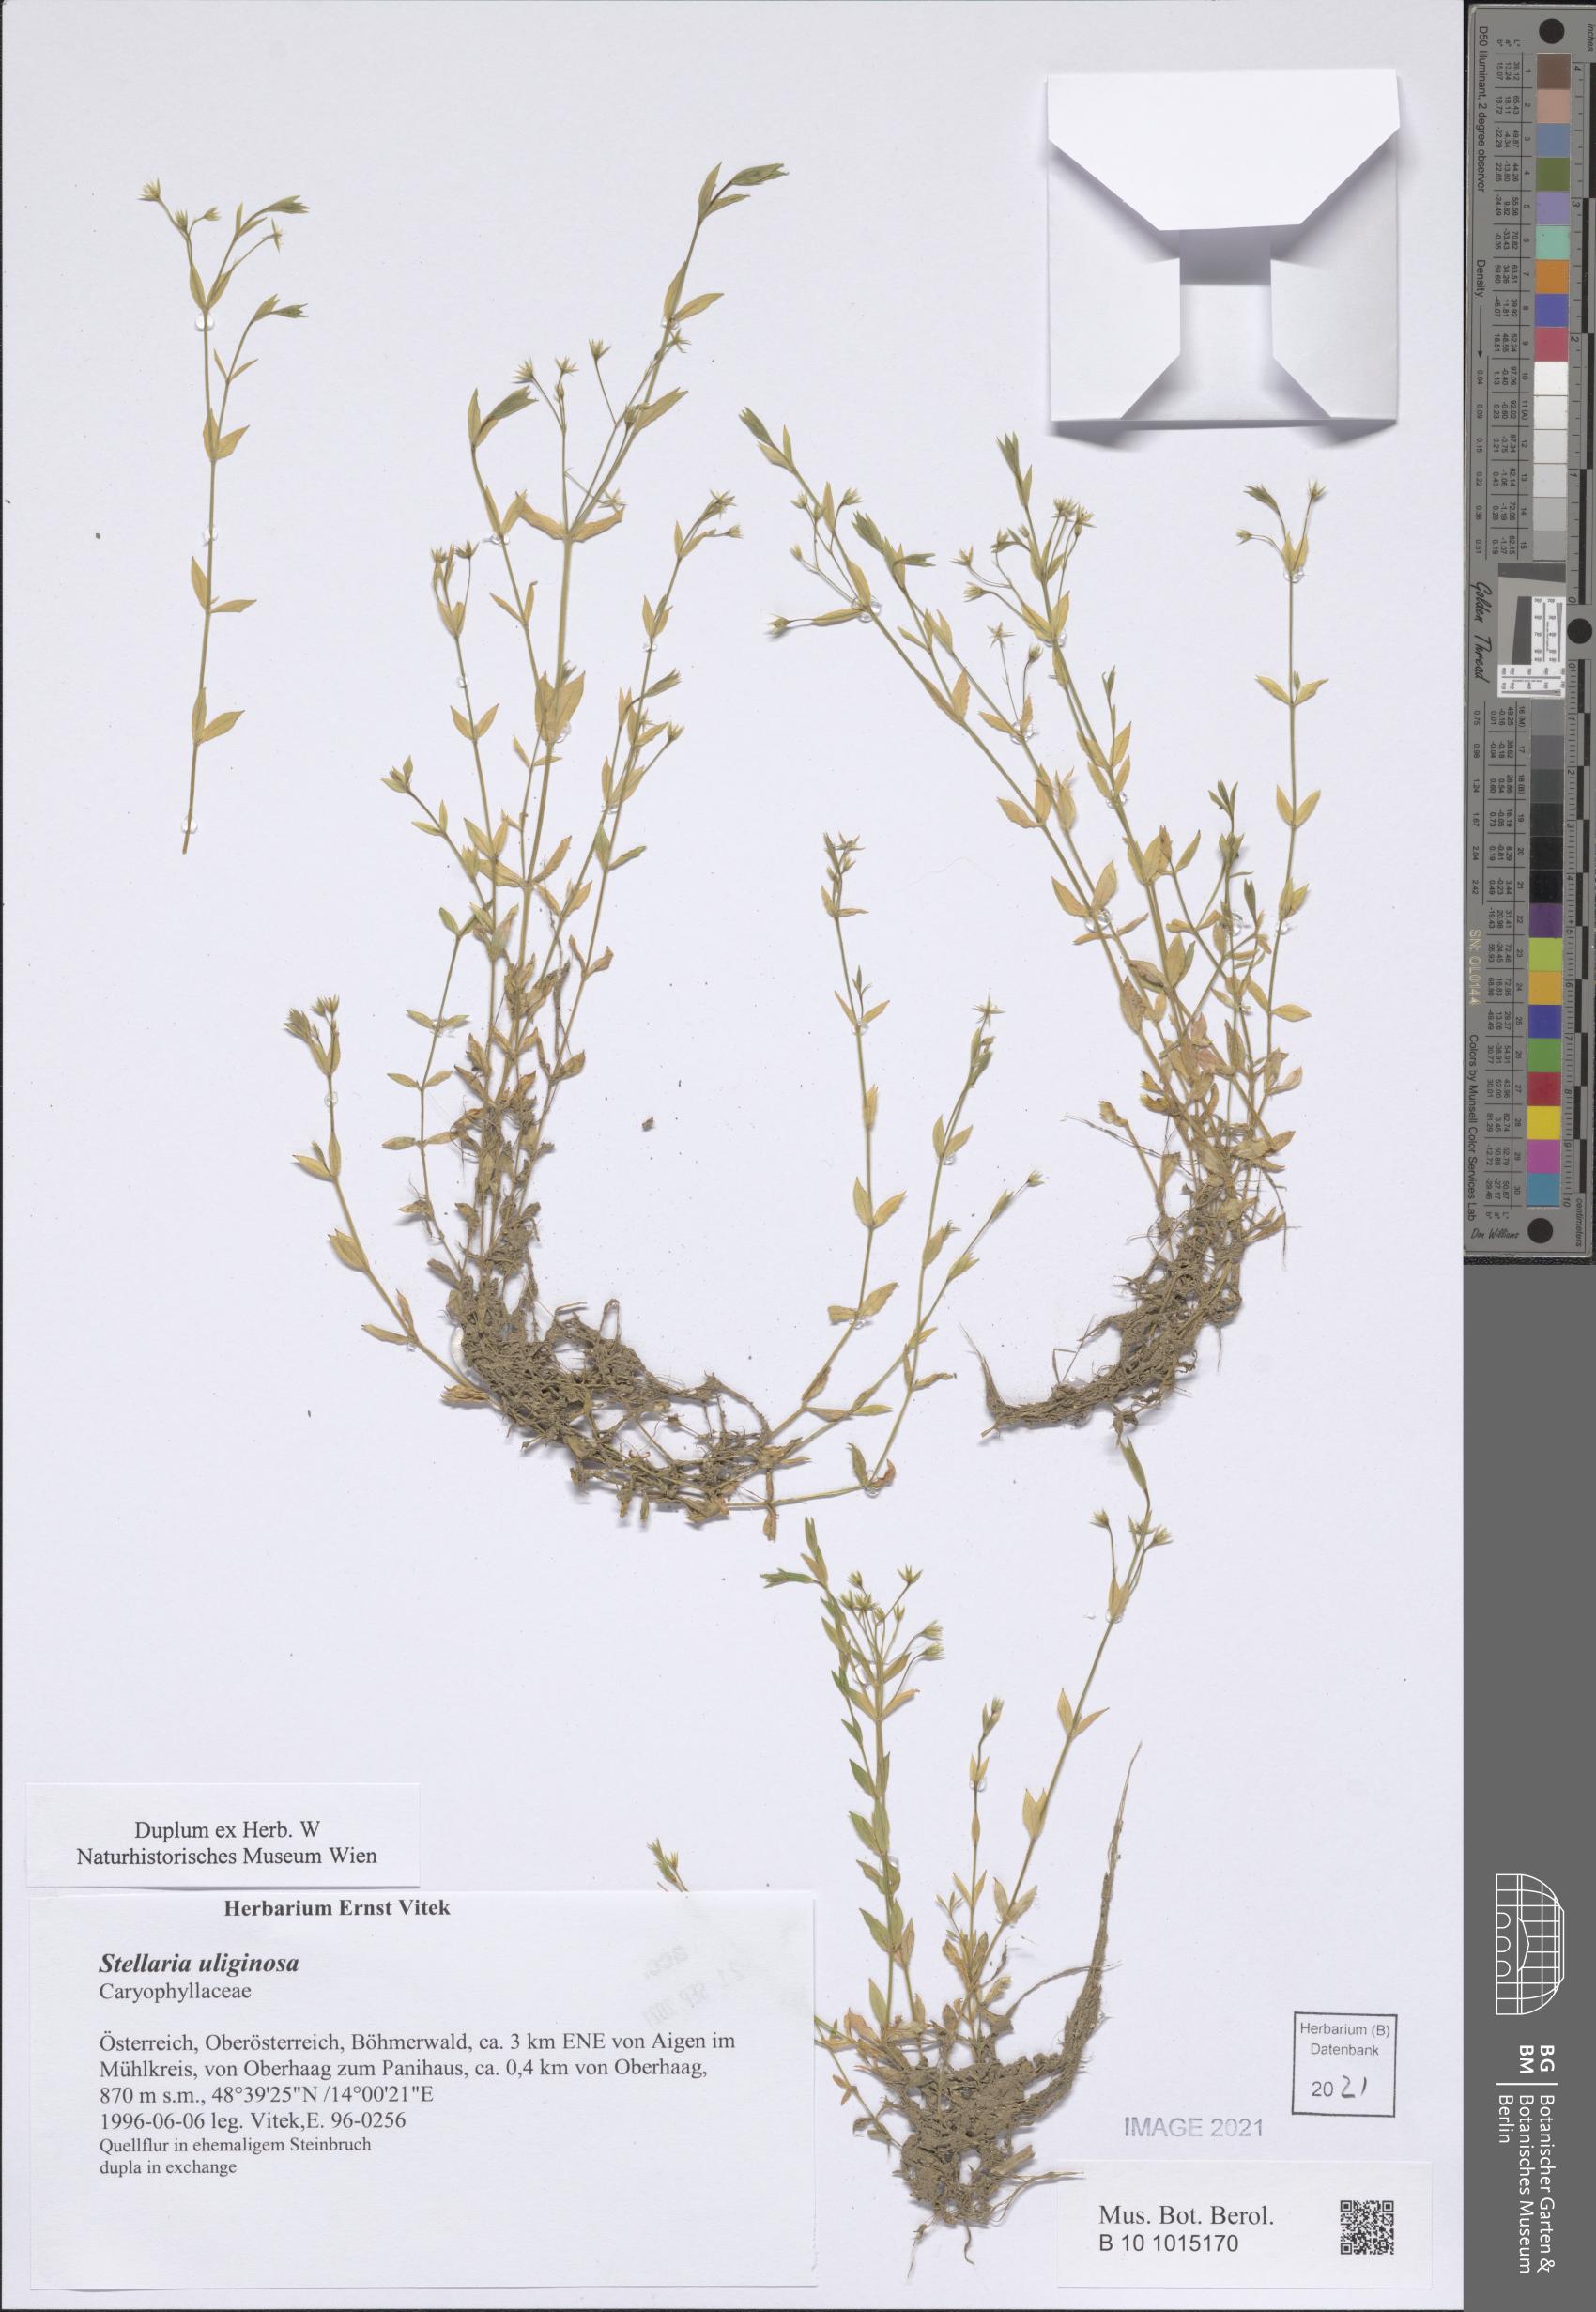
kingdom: Plantae
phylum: Tracheophyta
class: Magnoliopsida
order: Caryophyllales
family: Caryophyllaceae
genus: Stellaria
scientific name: Stellaria alsine
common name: Bog stitchwort
